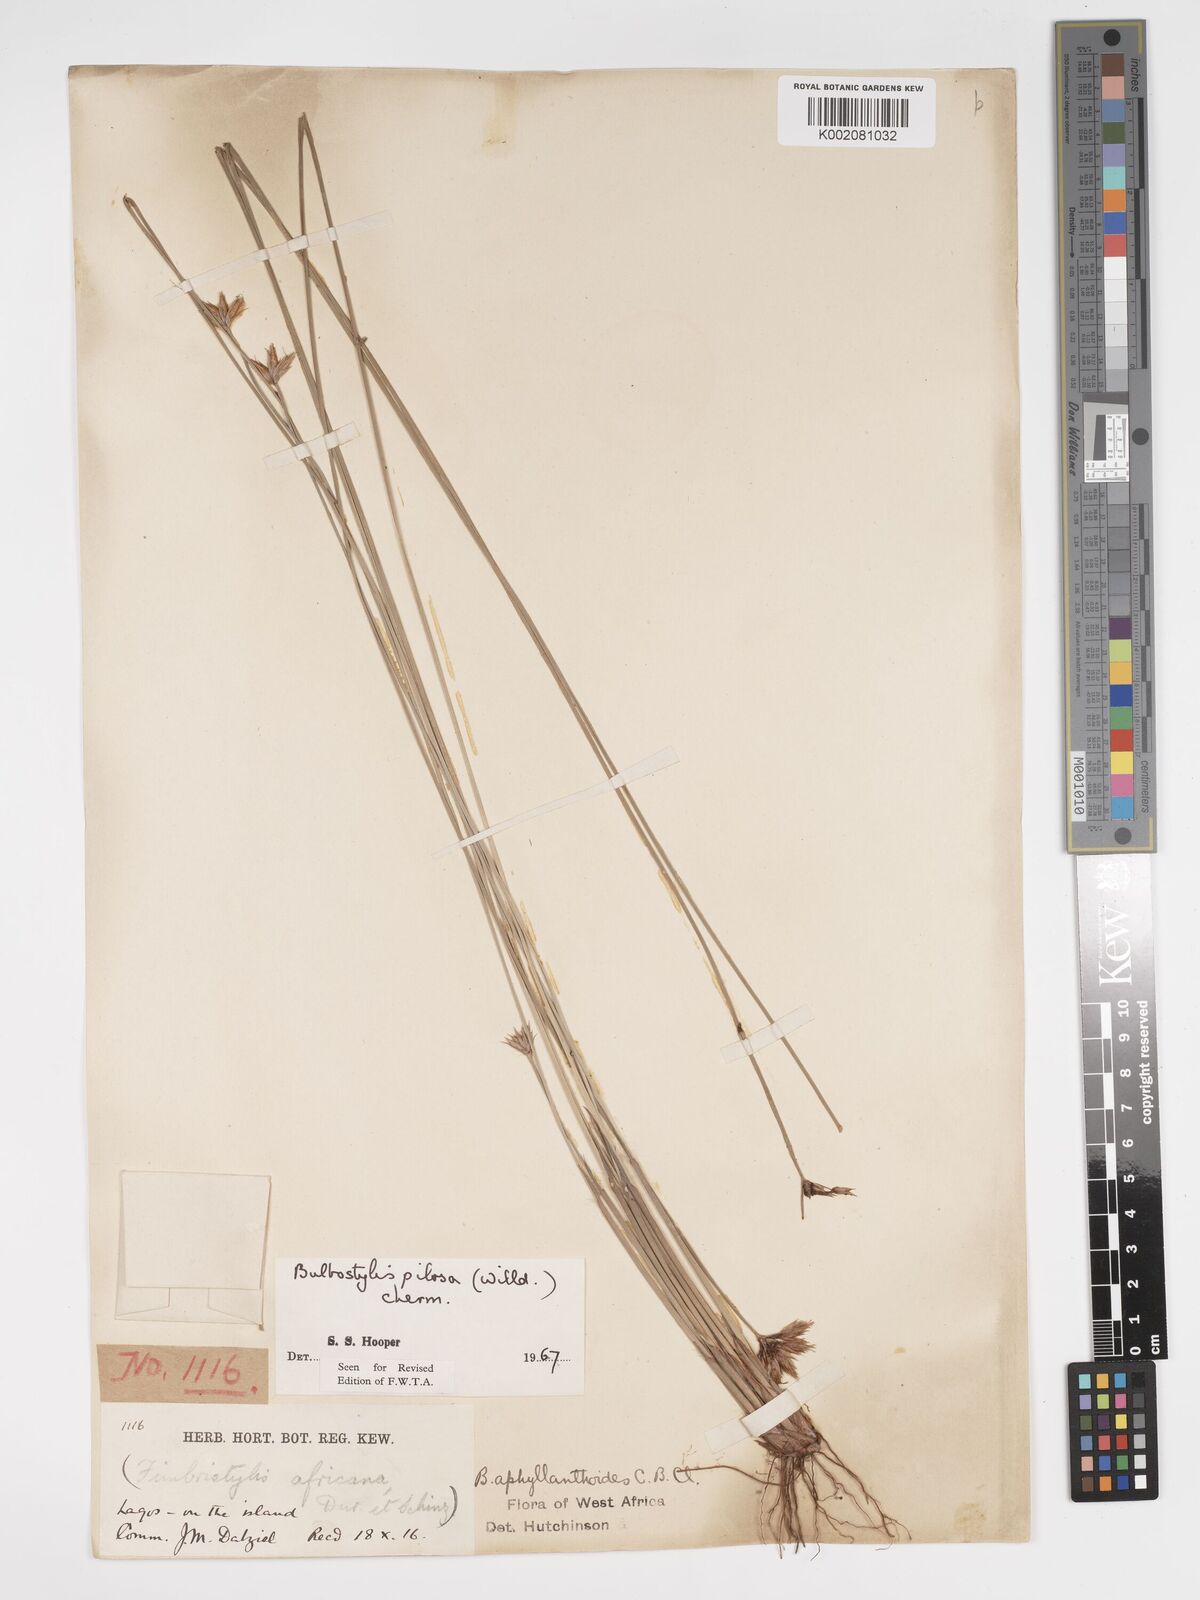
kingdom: Plantae
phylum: Tracheophyta
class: Liliopsida
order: Poales
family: Cyperaceae
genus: Bulbostylis
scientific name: Bulbostylis pilosa
